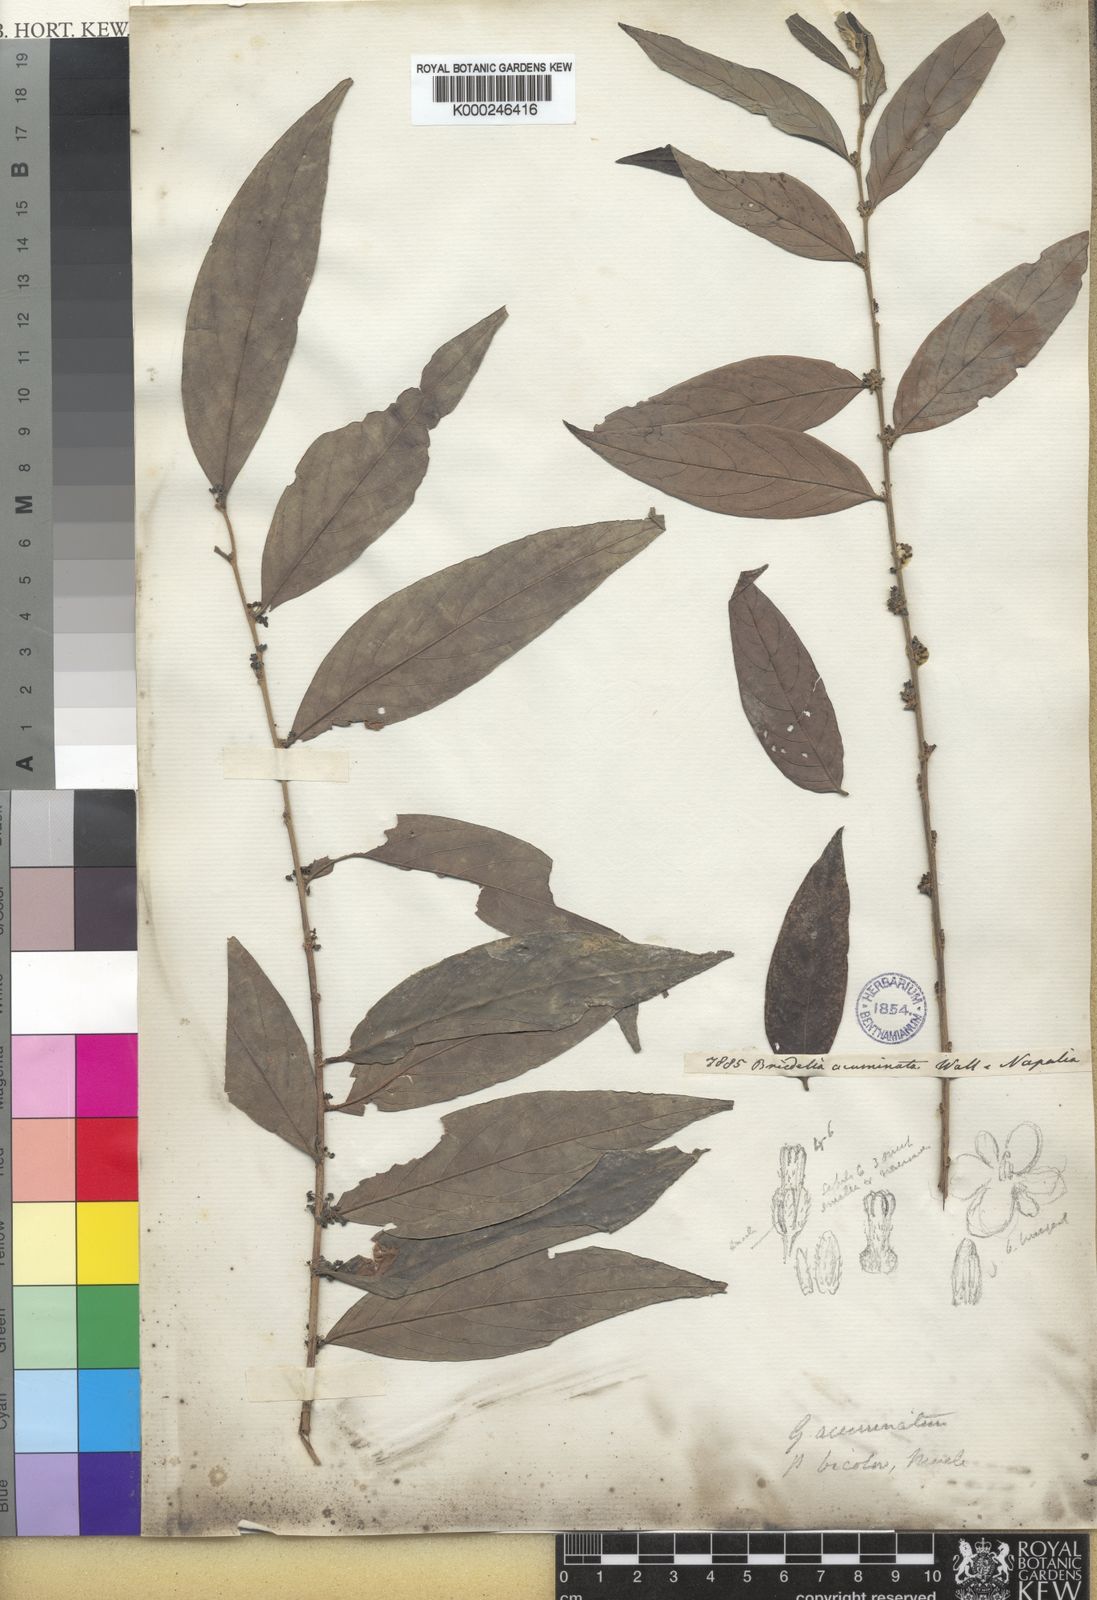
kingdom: Plantae
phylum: Tracheophyta
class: Magnoliopsida
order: Malpighiales
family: Phyllanthaceae
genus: Glochidion
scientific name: Glochidion
